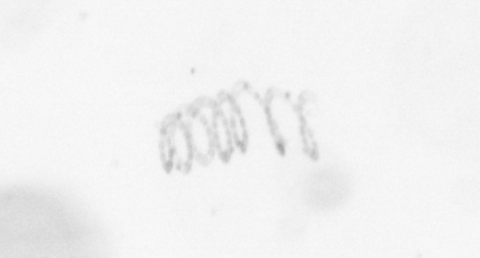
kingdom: Chromista
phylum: Ochrophyta
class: Bacillariophyceae
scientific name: Bacillariophyceae
